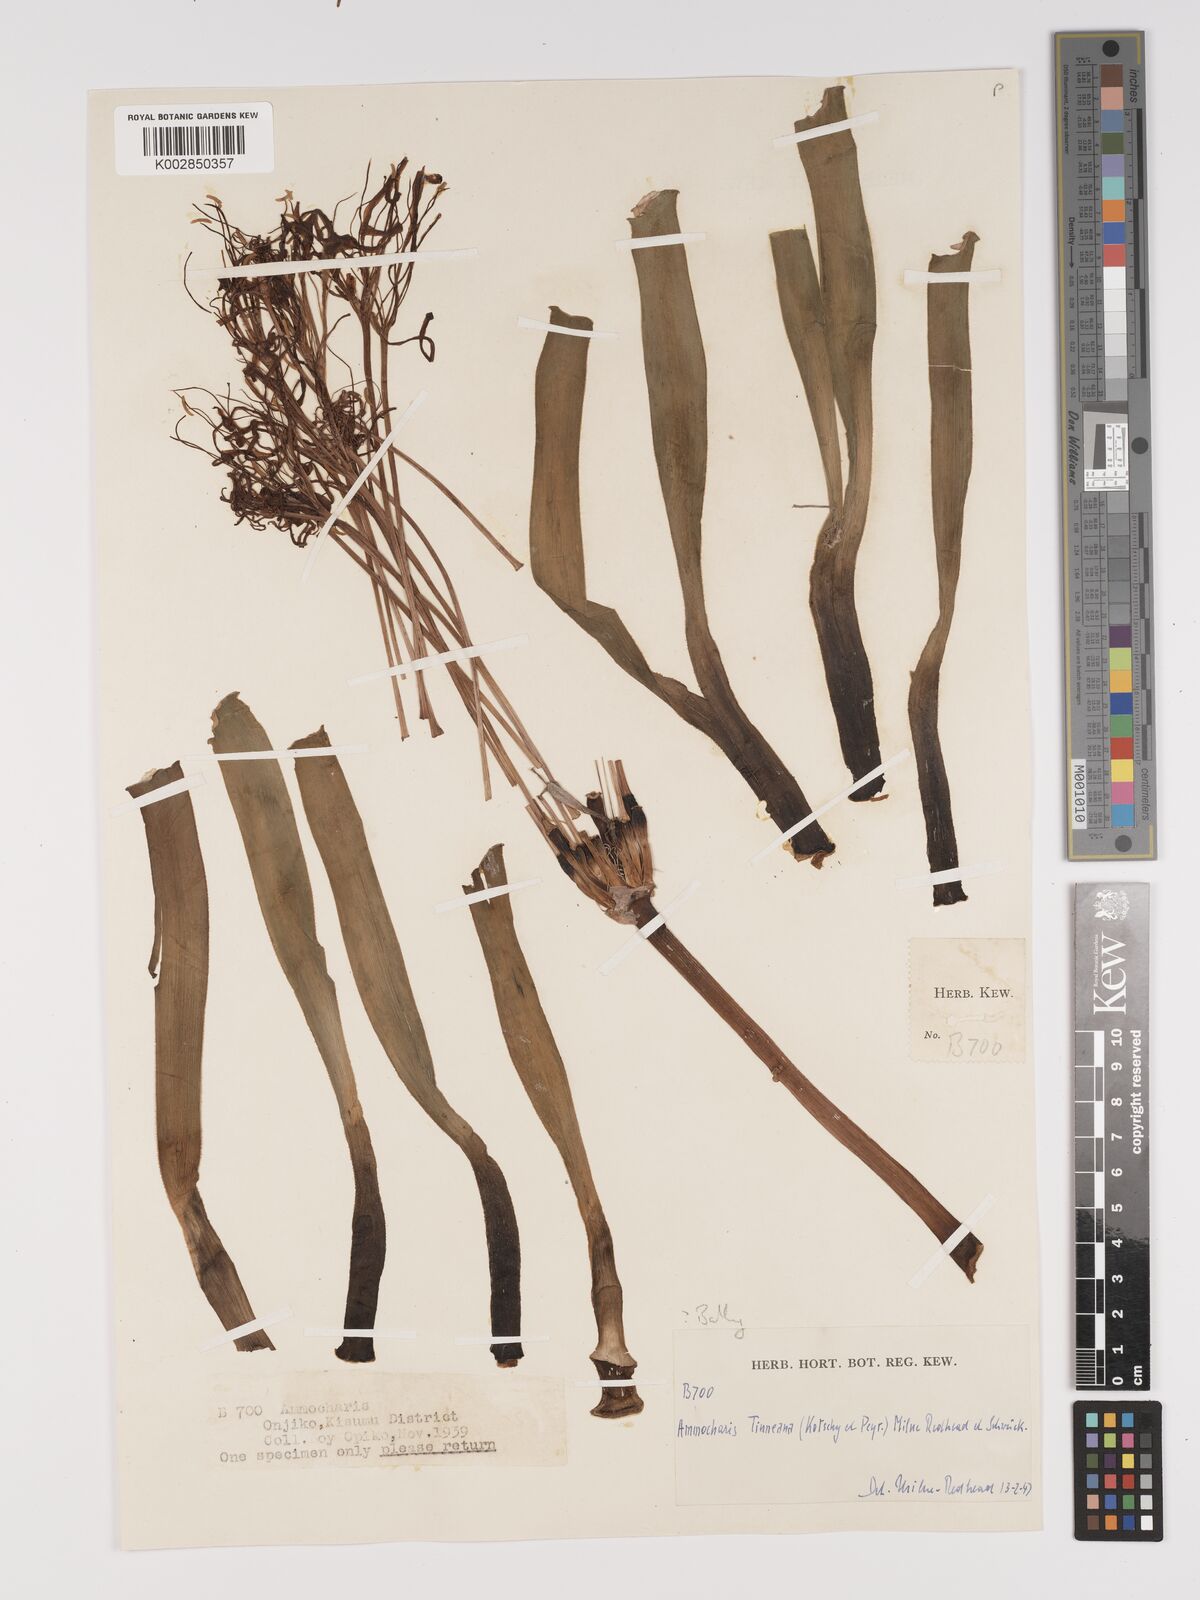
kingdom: Plantae
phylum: Tracheophyta
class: Liliopsida
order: Asparagales
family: Amaryllidaceae
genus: Ammocharis
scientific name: Ammocharis tinneana
